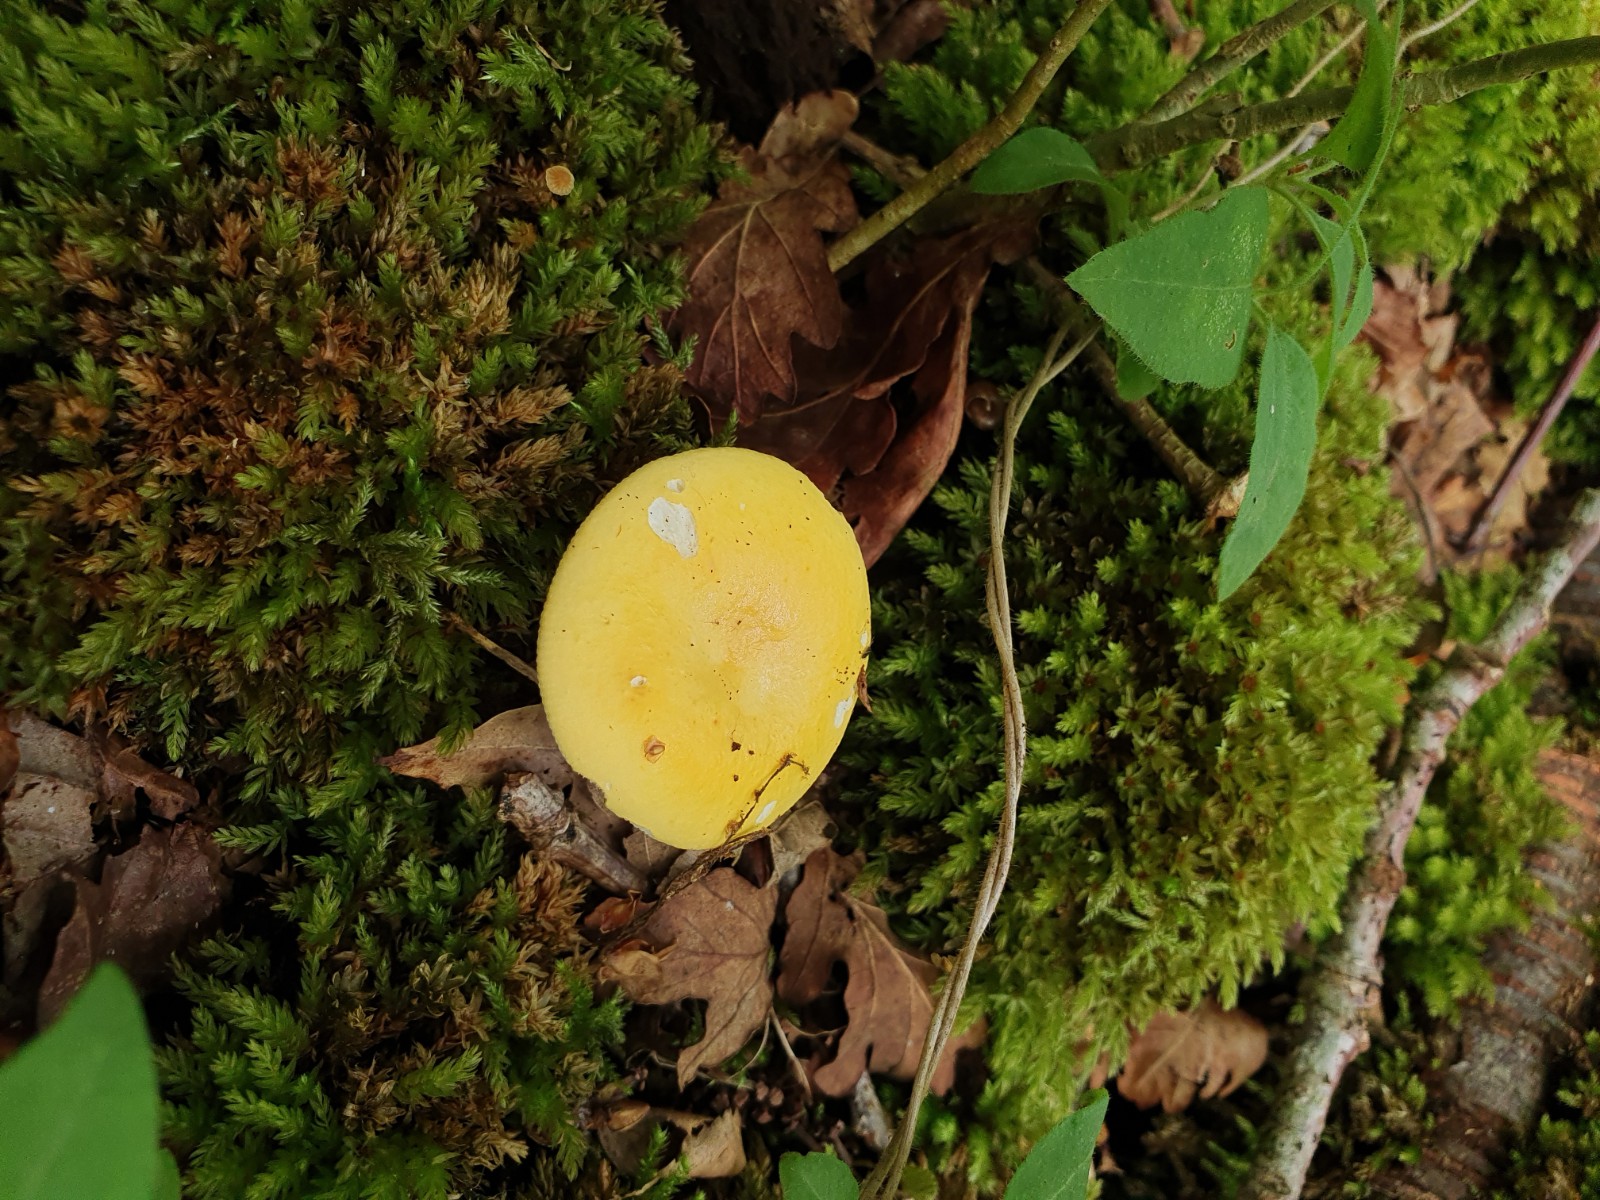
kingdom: Fungi
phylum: Basidiomycota
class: Agaricomycetes
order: Russulales
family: Russulaceae
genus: Russula
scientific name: Russula claroflava
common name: birke-skørhat
